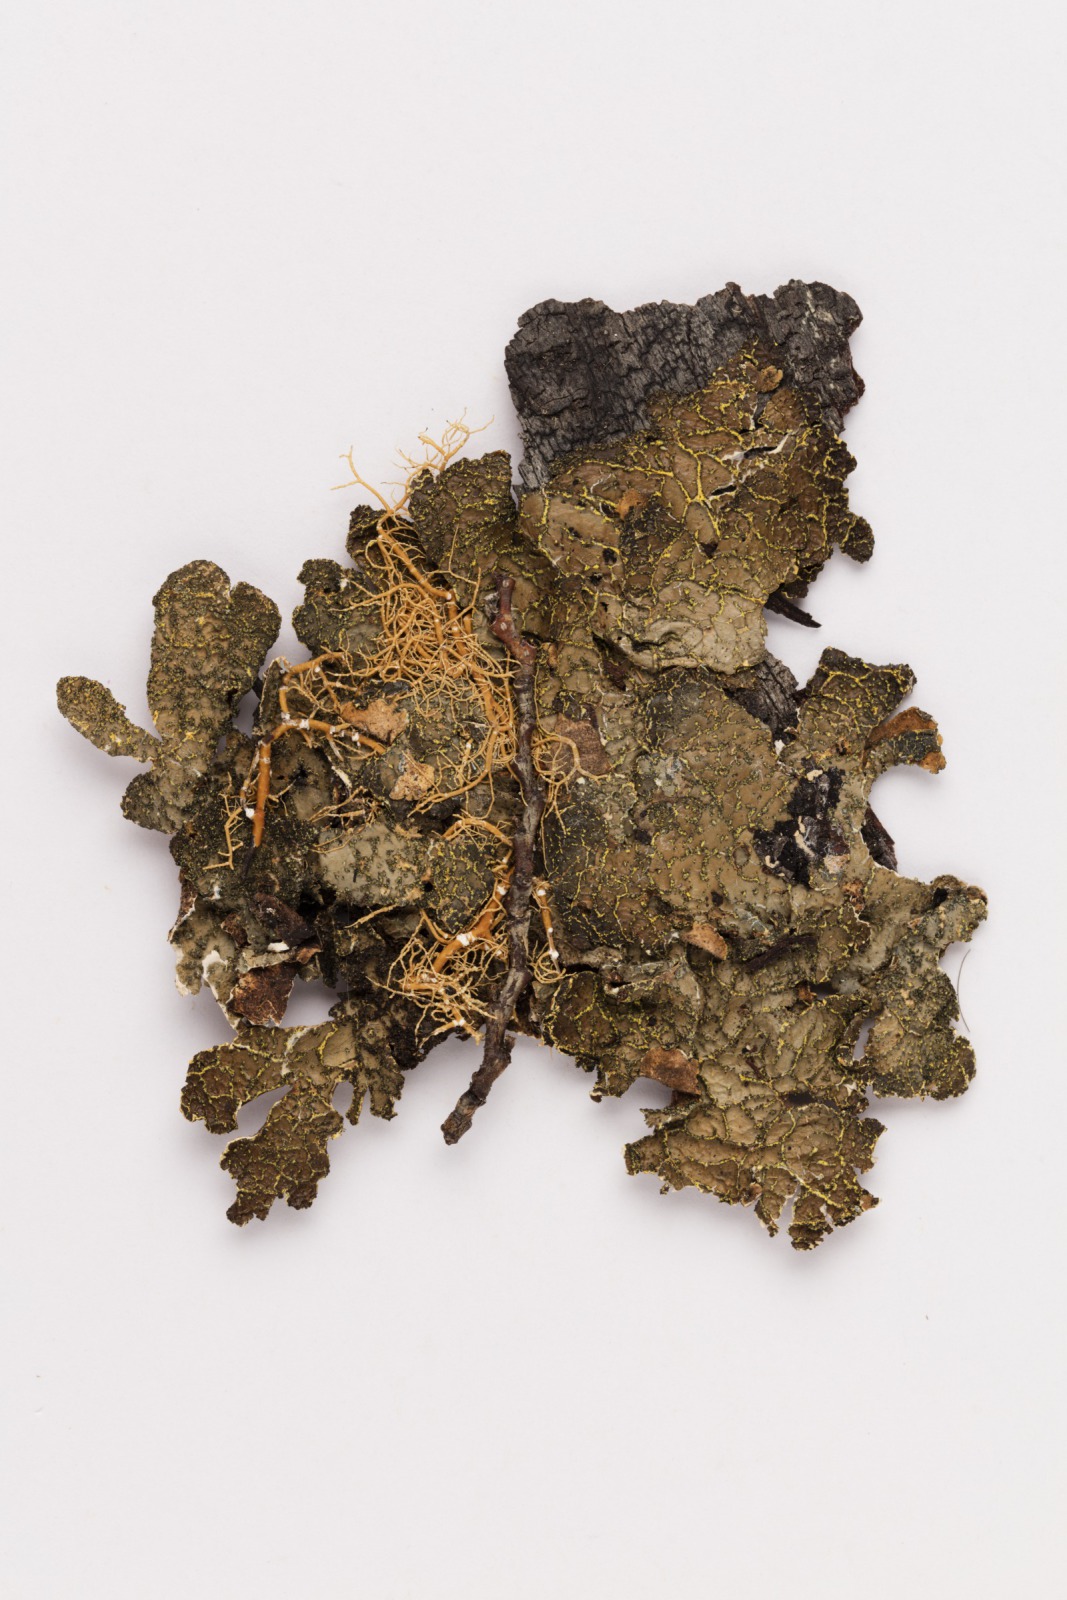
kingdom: Fungi
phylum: Ascomycota
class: Lecanoromycetes
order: Peltigerales
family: Lobariaceae
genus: Pseudocyphellaria
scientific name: Pseudocyphellaria crocata
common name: Golden specklebelly
